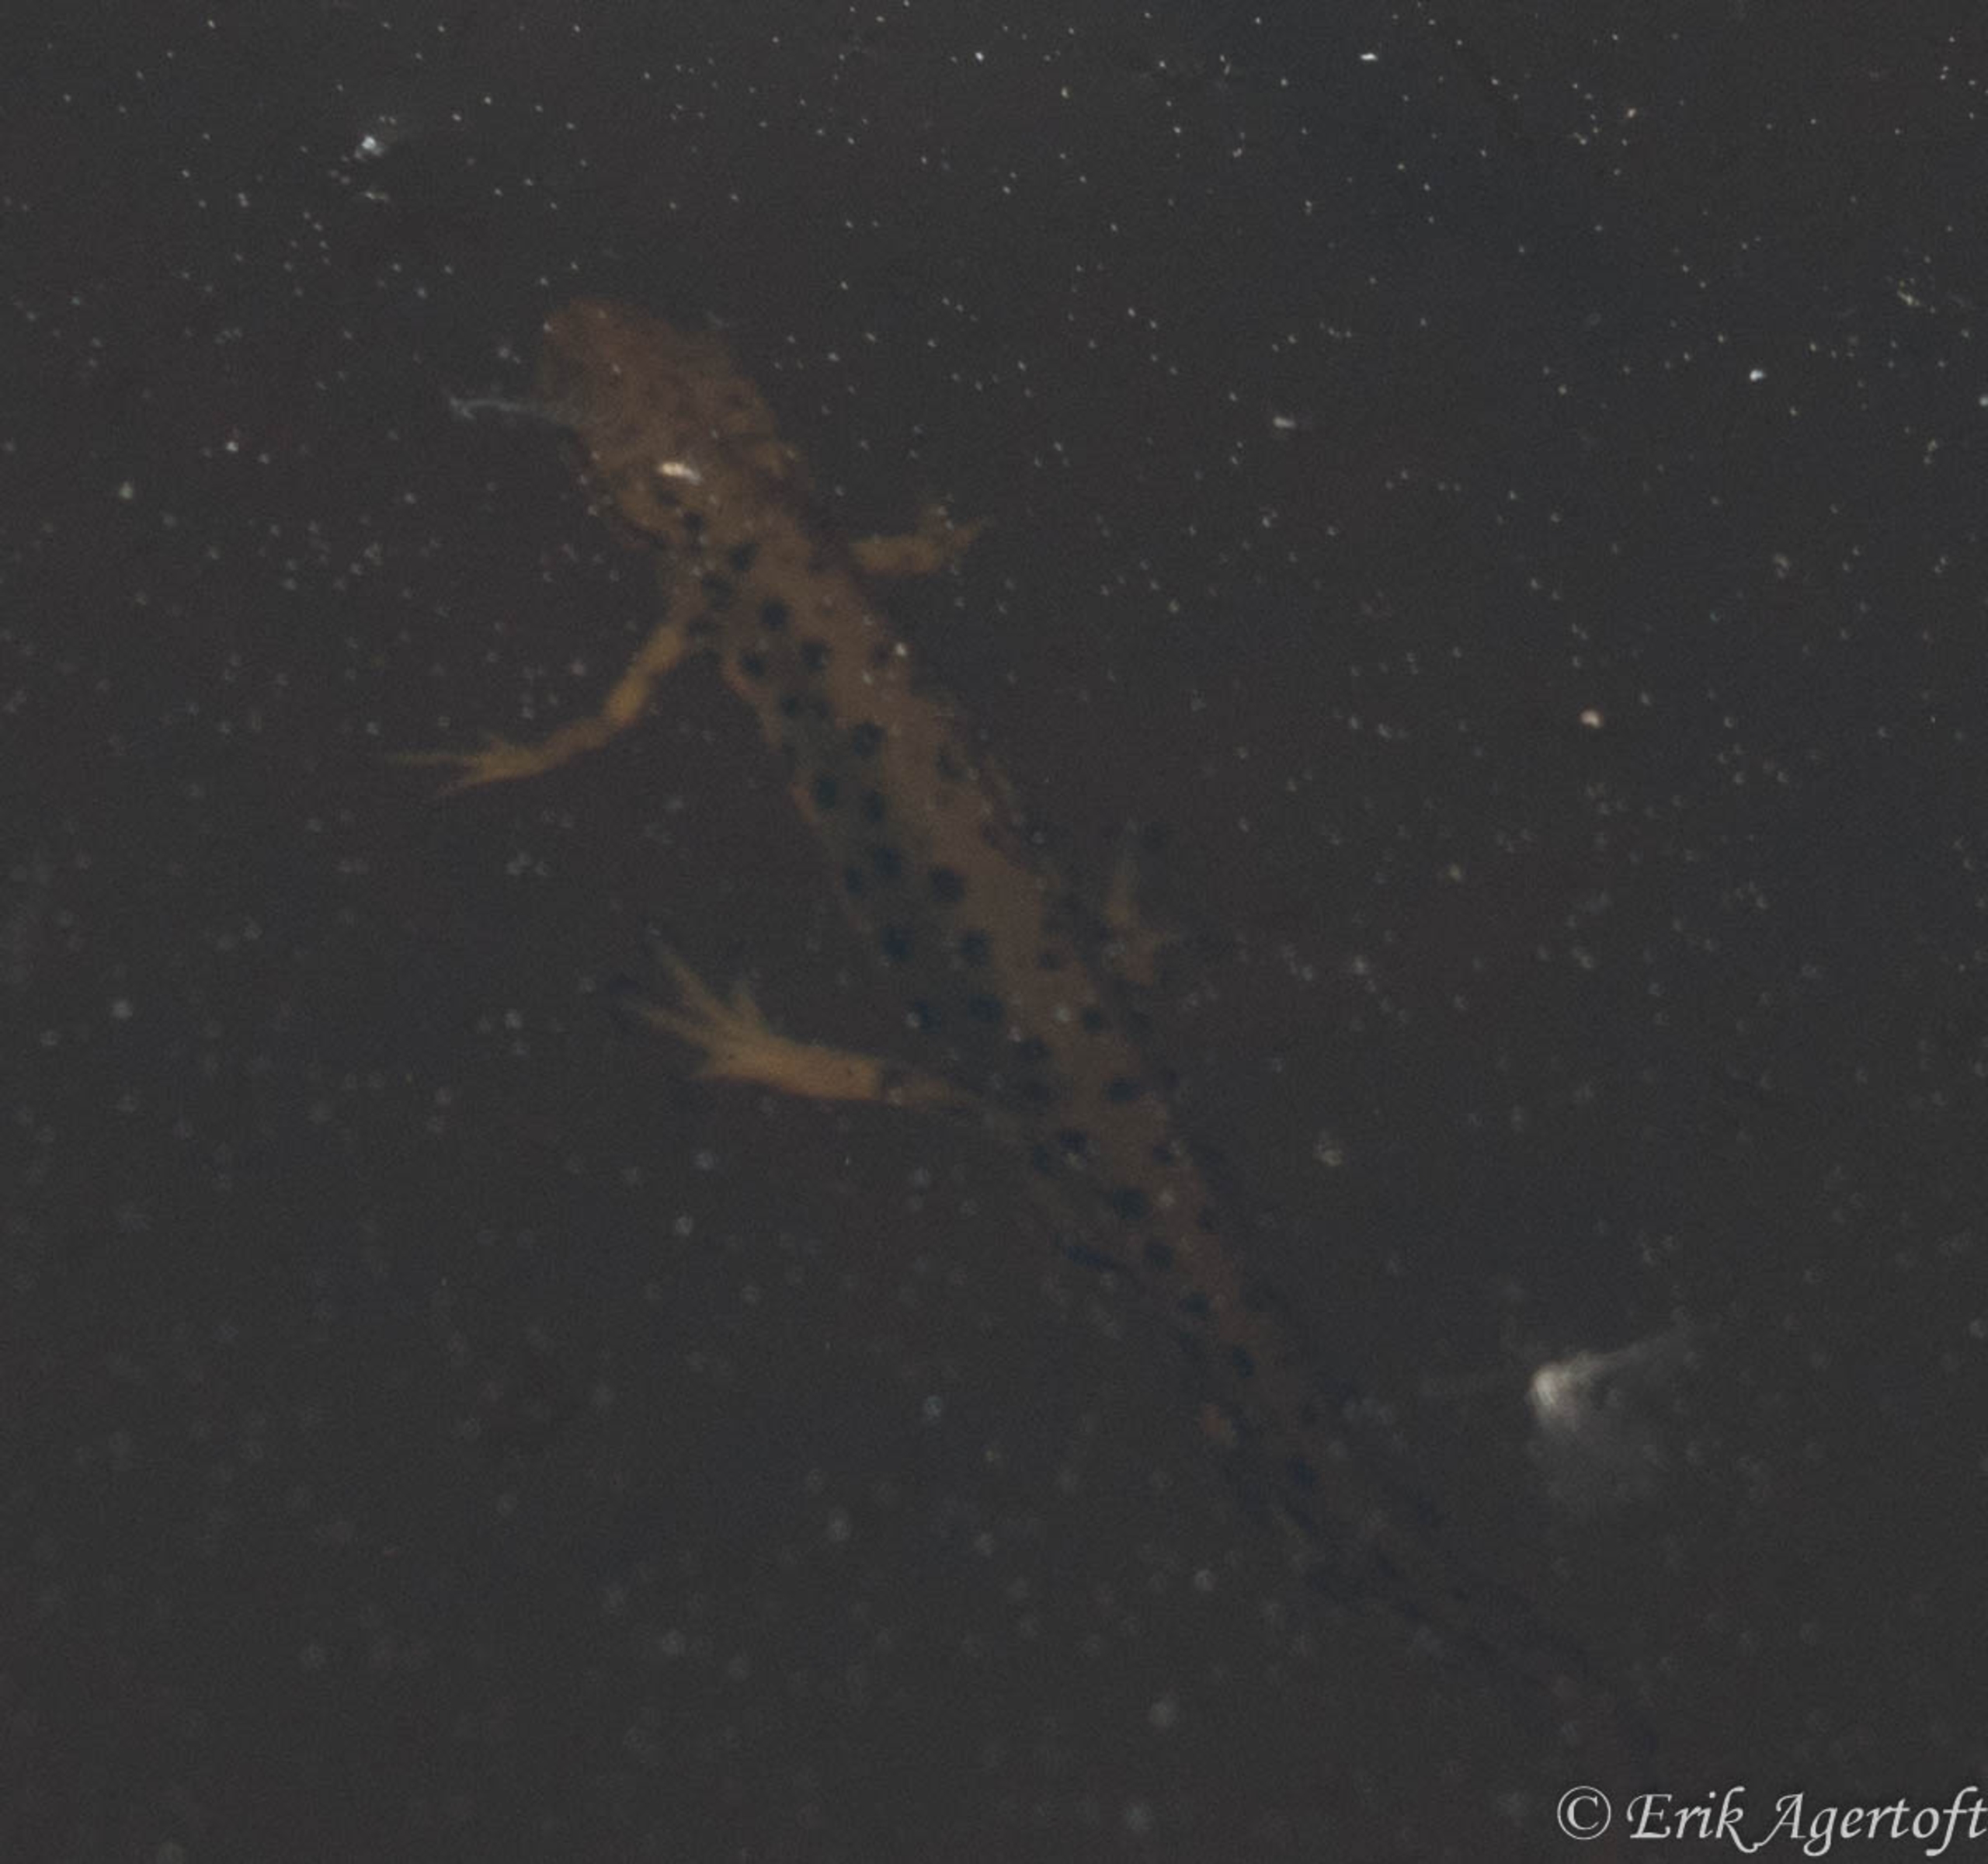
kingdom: Animalia
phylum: Chordata
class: Amphibia
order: Caudata
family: Salamandridae
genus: Lissotriton
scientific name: Lissotriton vulgaris
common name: Lille vandsalamander
